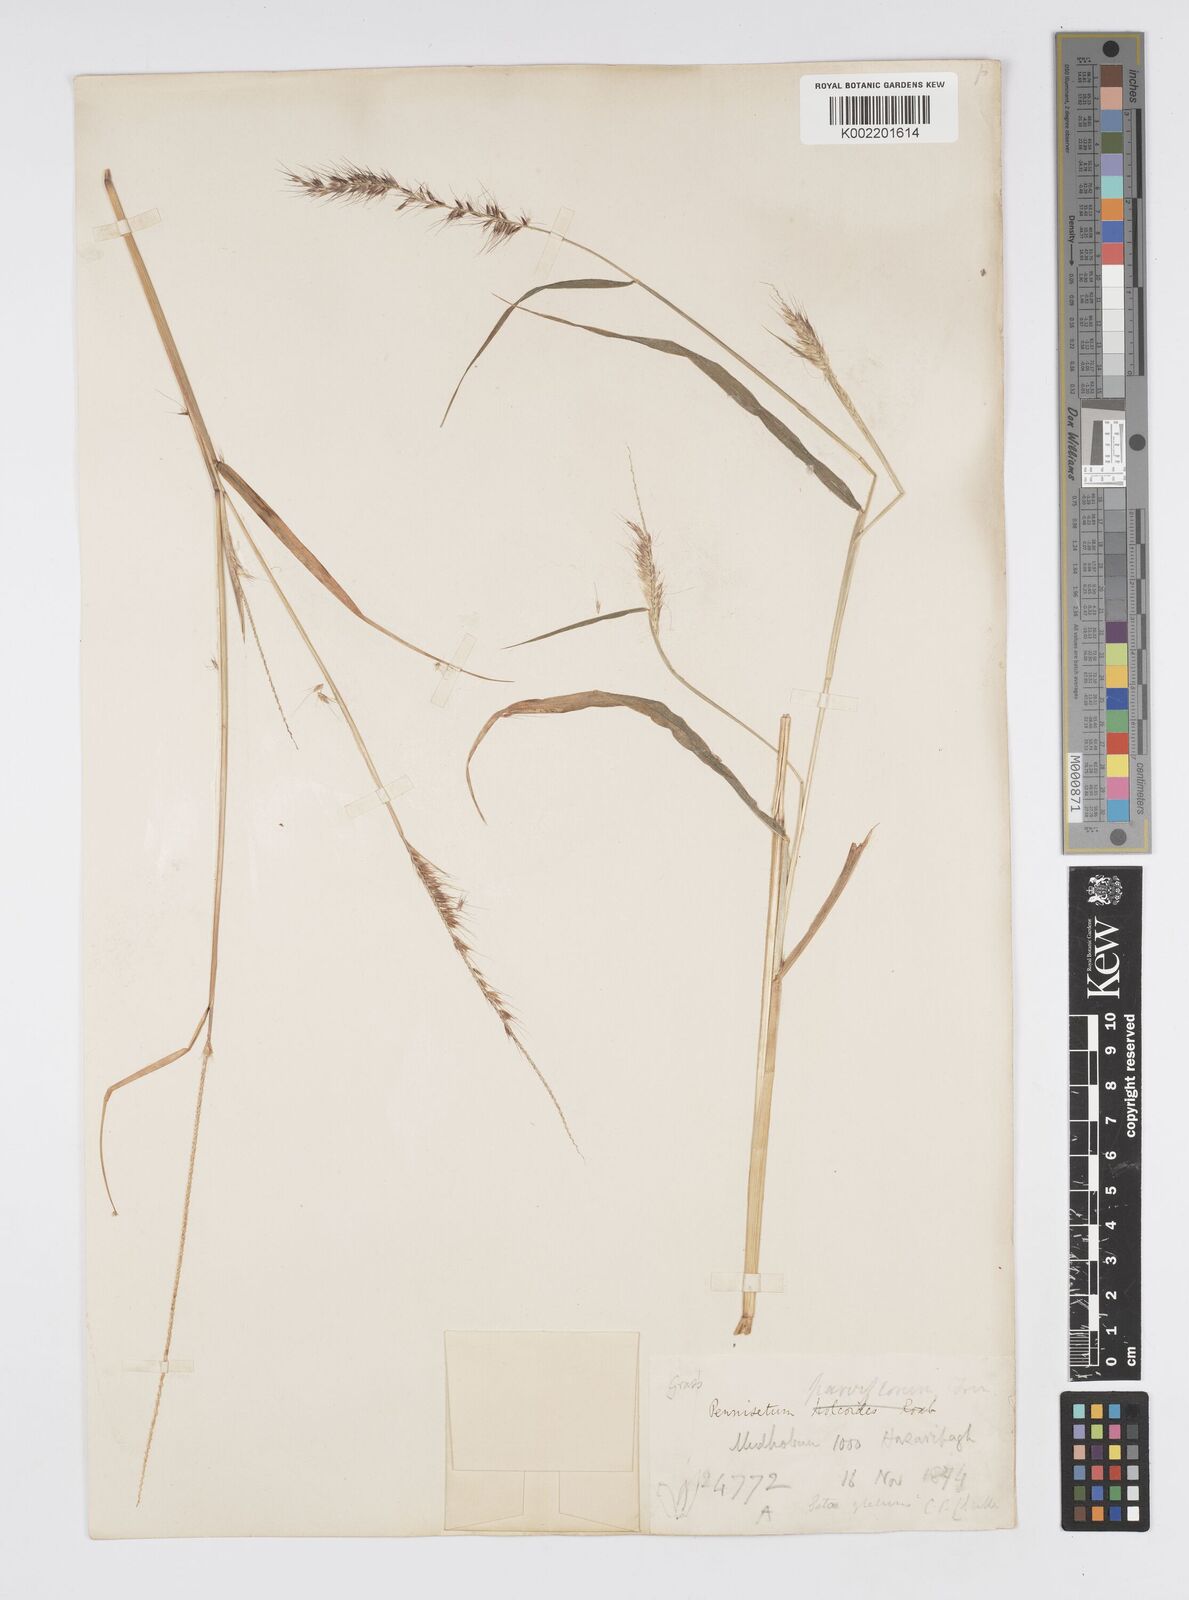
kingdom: Plantae
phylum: Tracheophyta
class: Liliopsida
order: Poales
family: Poaceae
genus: Cenchrus
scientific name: Cenchrus hordeoides
